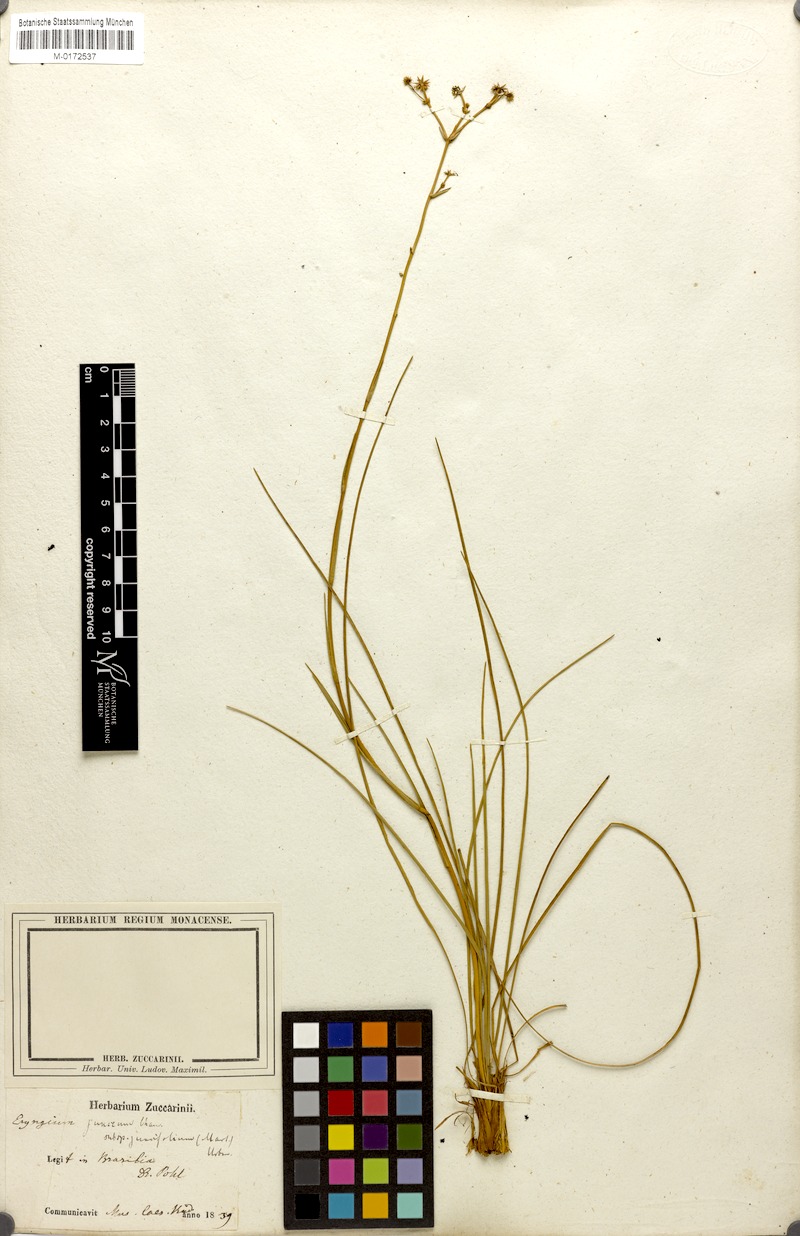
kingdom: Plantae
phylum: Tracheophyta
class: Magnoliopsida
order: Apiales
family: Apiaceae
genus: Eryngium
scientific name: Eryngium juncifolium
